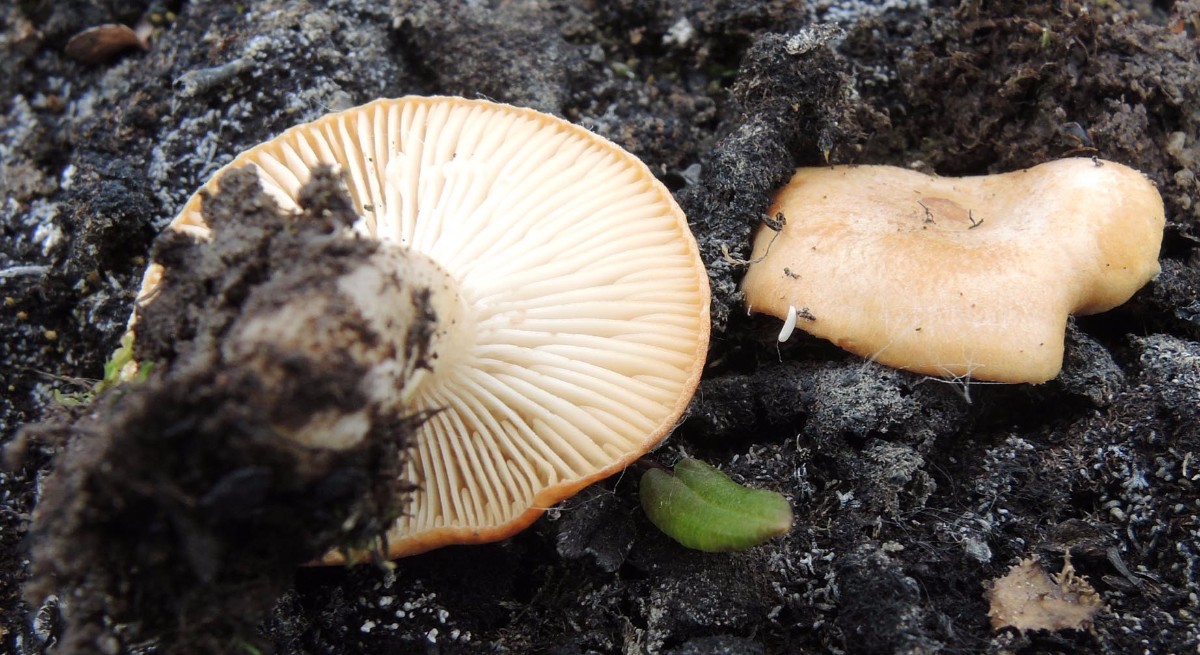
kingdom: Fungi
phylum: Basidiomycota
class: Agaricomycetes
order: Russulales
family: Russulaceae
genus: Lactarius
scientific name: Lactarius salicis-herbaceae
